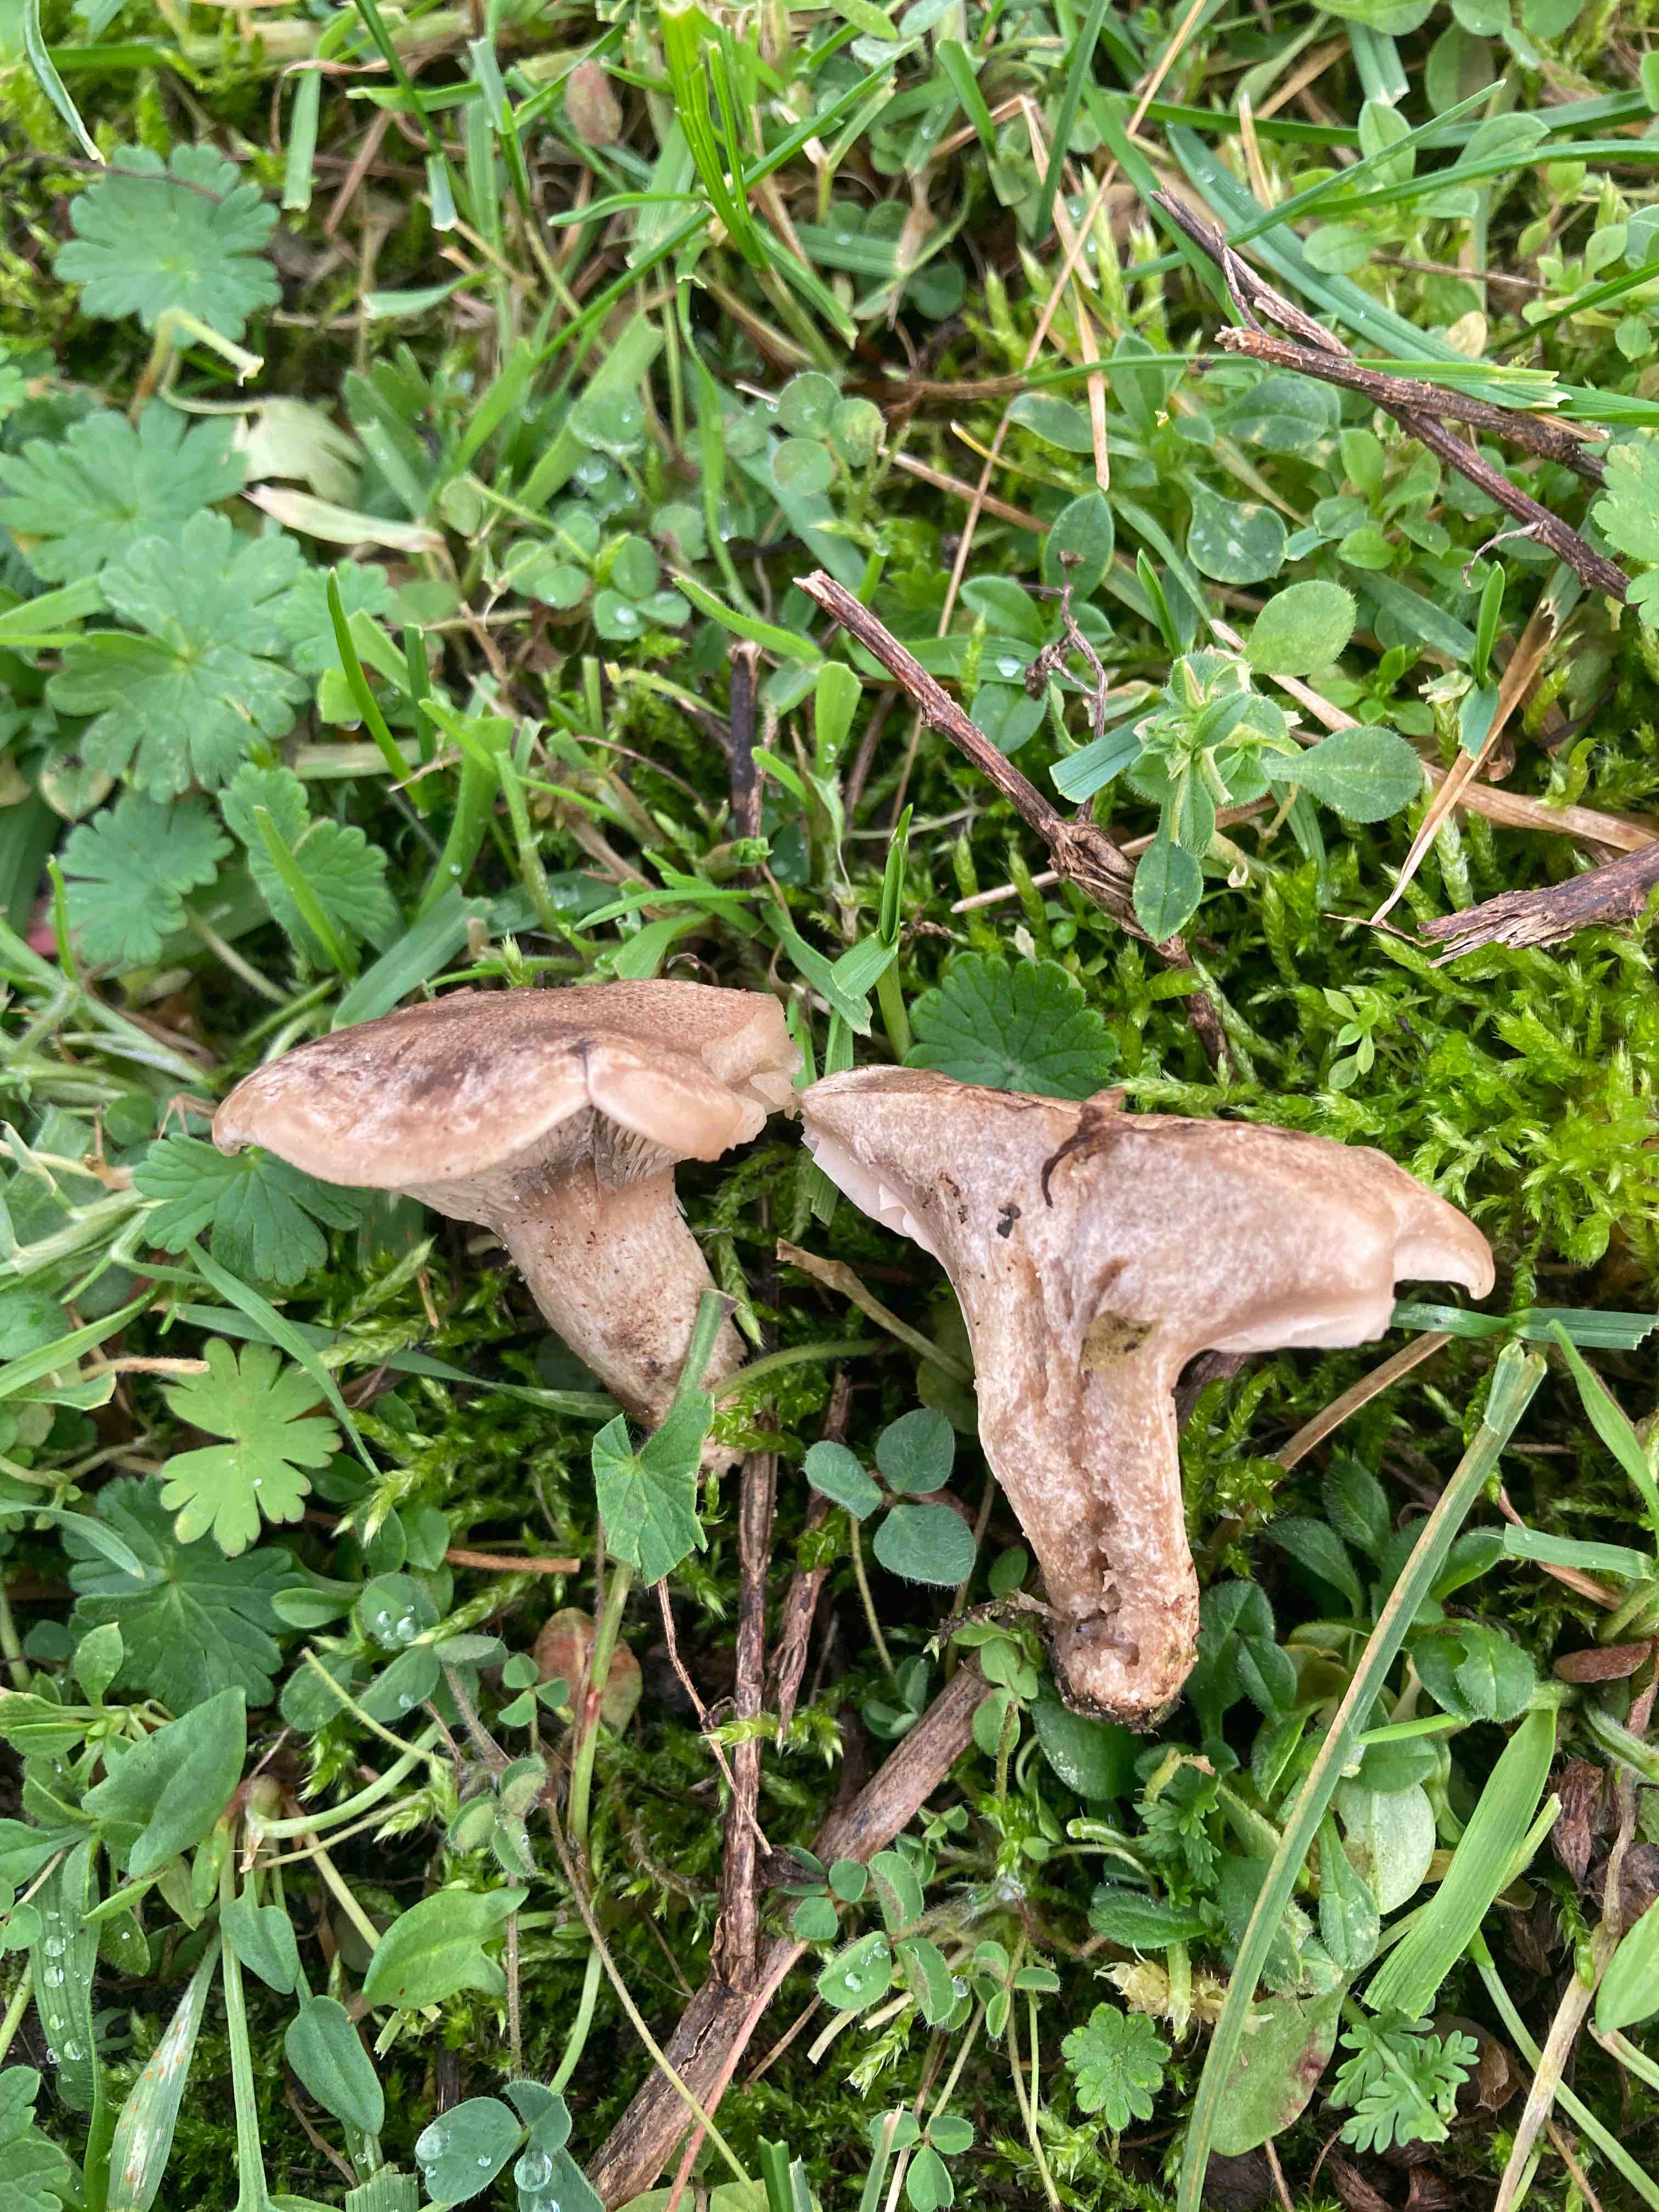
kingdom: Fungi
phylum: Basidiomycota
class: Agaricomycetes
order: Agaricales
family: Tricholomataceae
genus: Lulesia
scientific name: Lulesia
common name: sortnende troldhat
